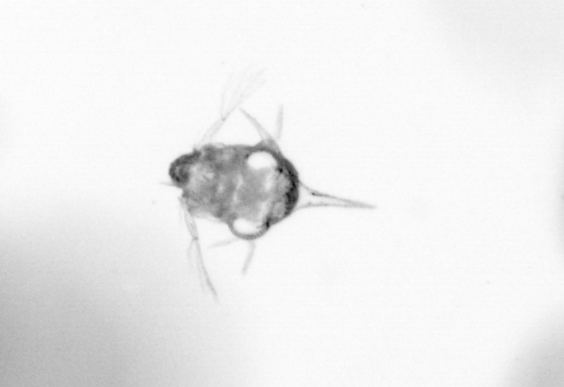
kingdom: Animalia
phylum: Arthropoda
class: Copepoda
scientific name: Copepoda
